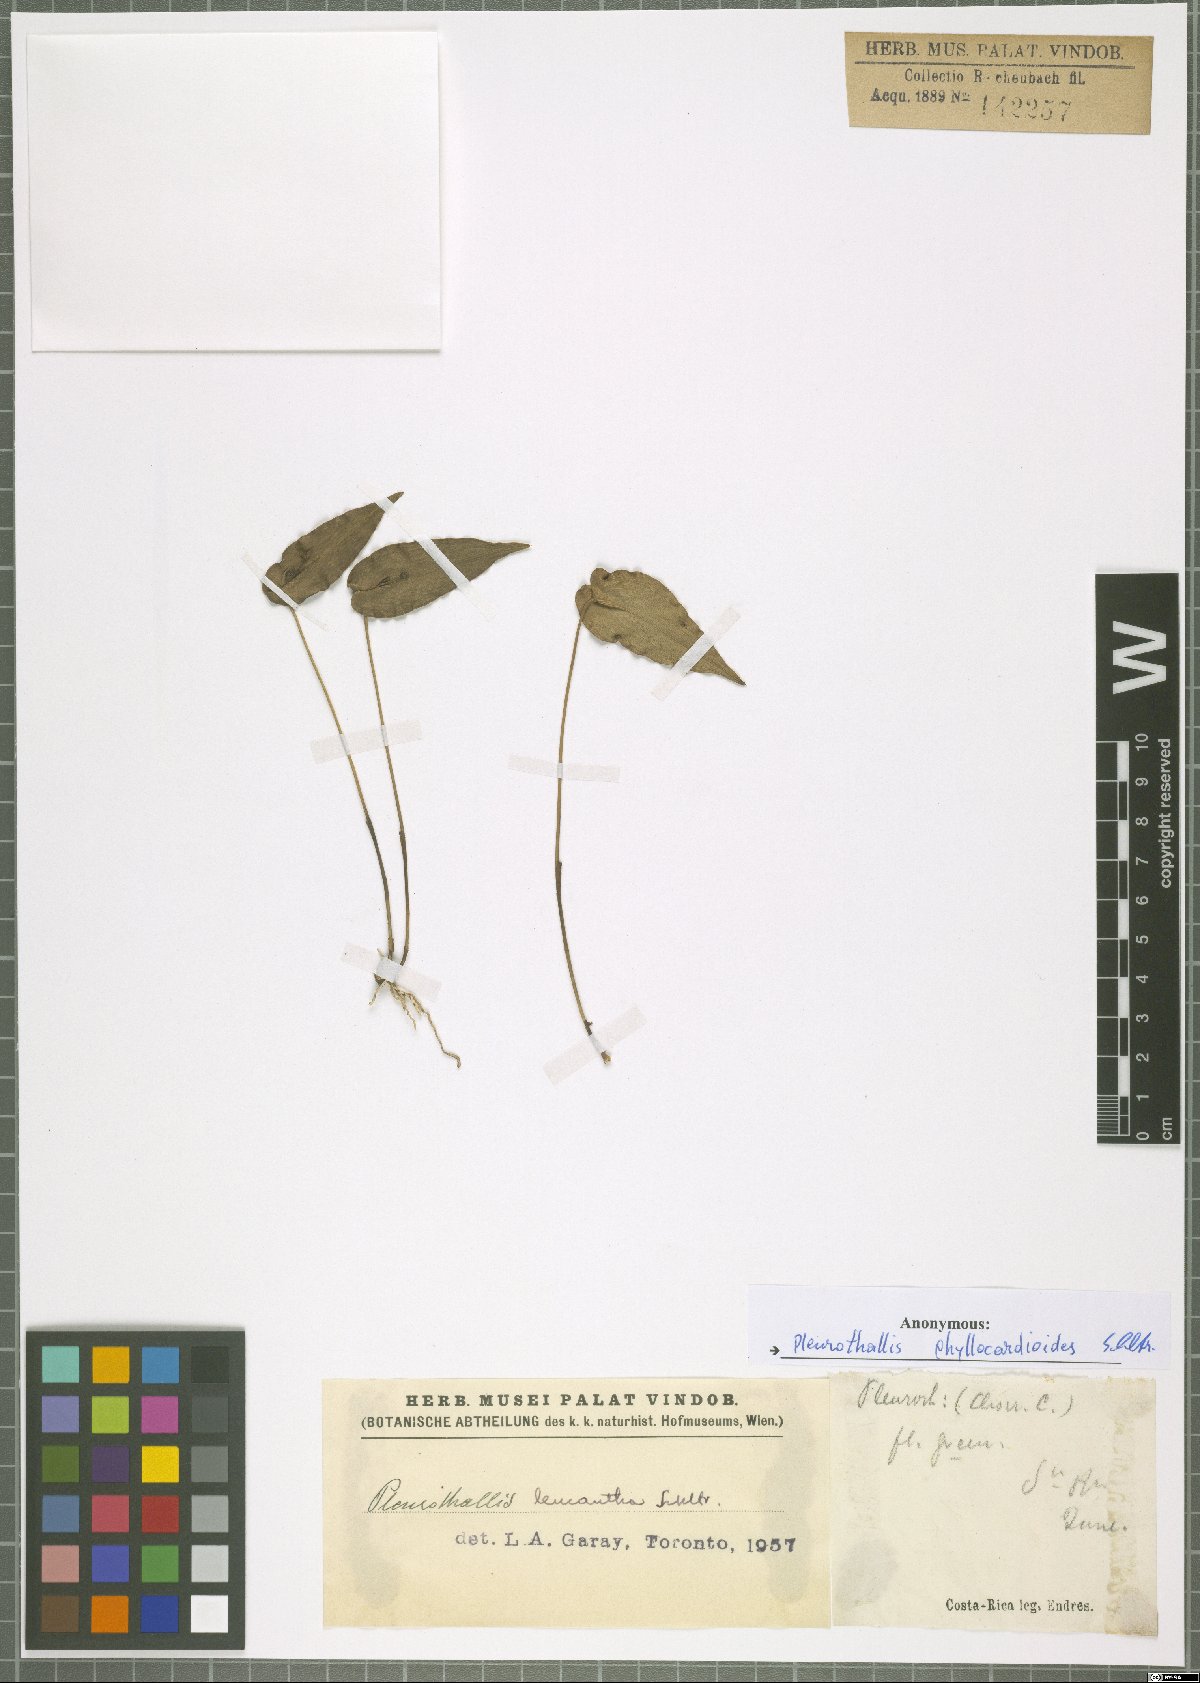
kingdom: Plantae
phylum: Tracheophyta
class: Liliopsida
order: Asparagales
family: Orchidaceae
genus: Pleurothallis
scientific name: Pleurothallis phyllocardioides
